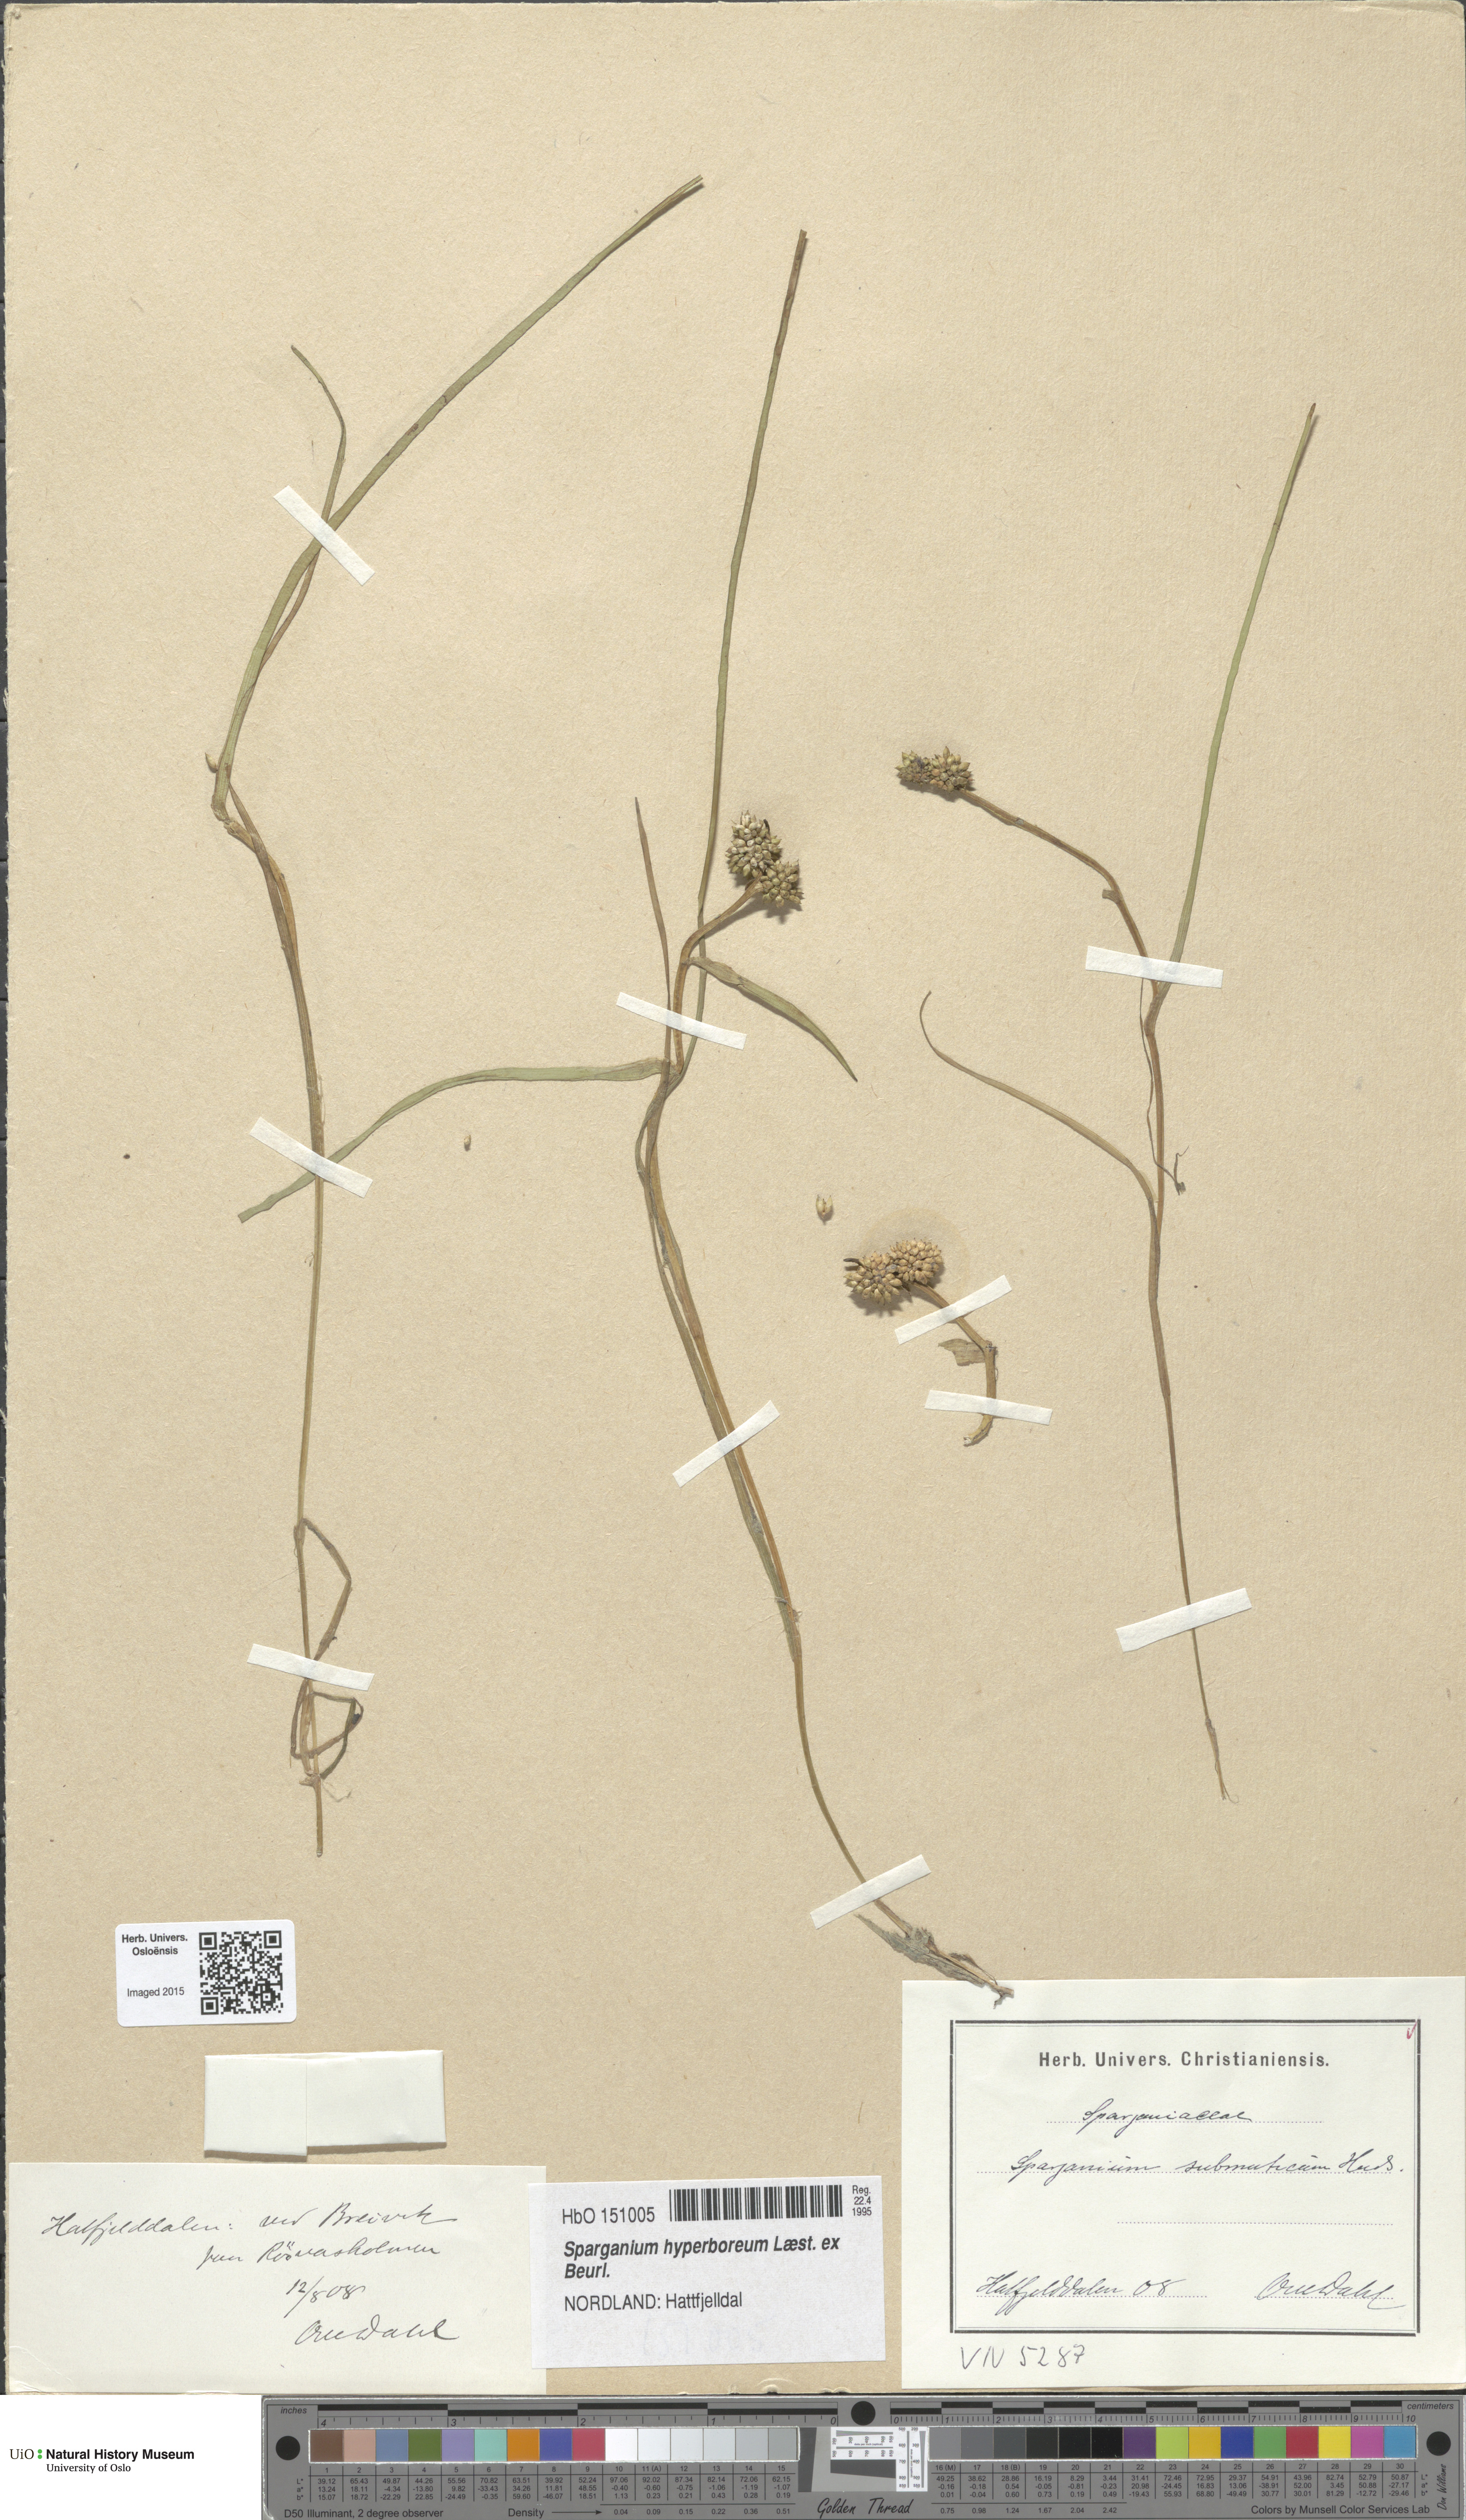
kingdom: Plantae
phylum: Tracheophyta
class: Liliopsida
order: Poales
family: Typhaceae
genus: Sparganium
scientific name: Sparganium hyperboreum
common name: Arctic burreed
